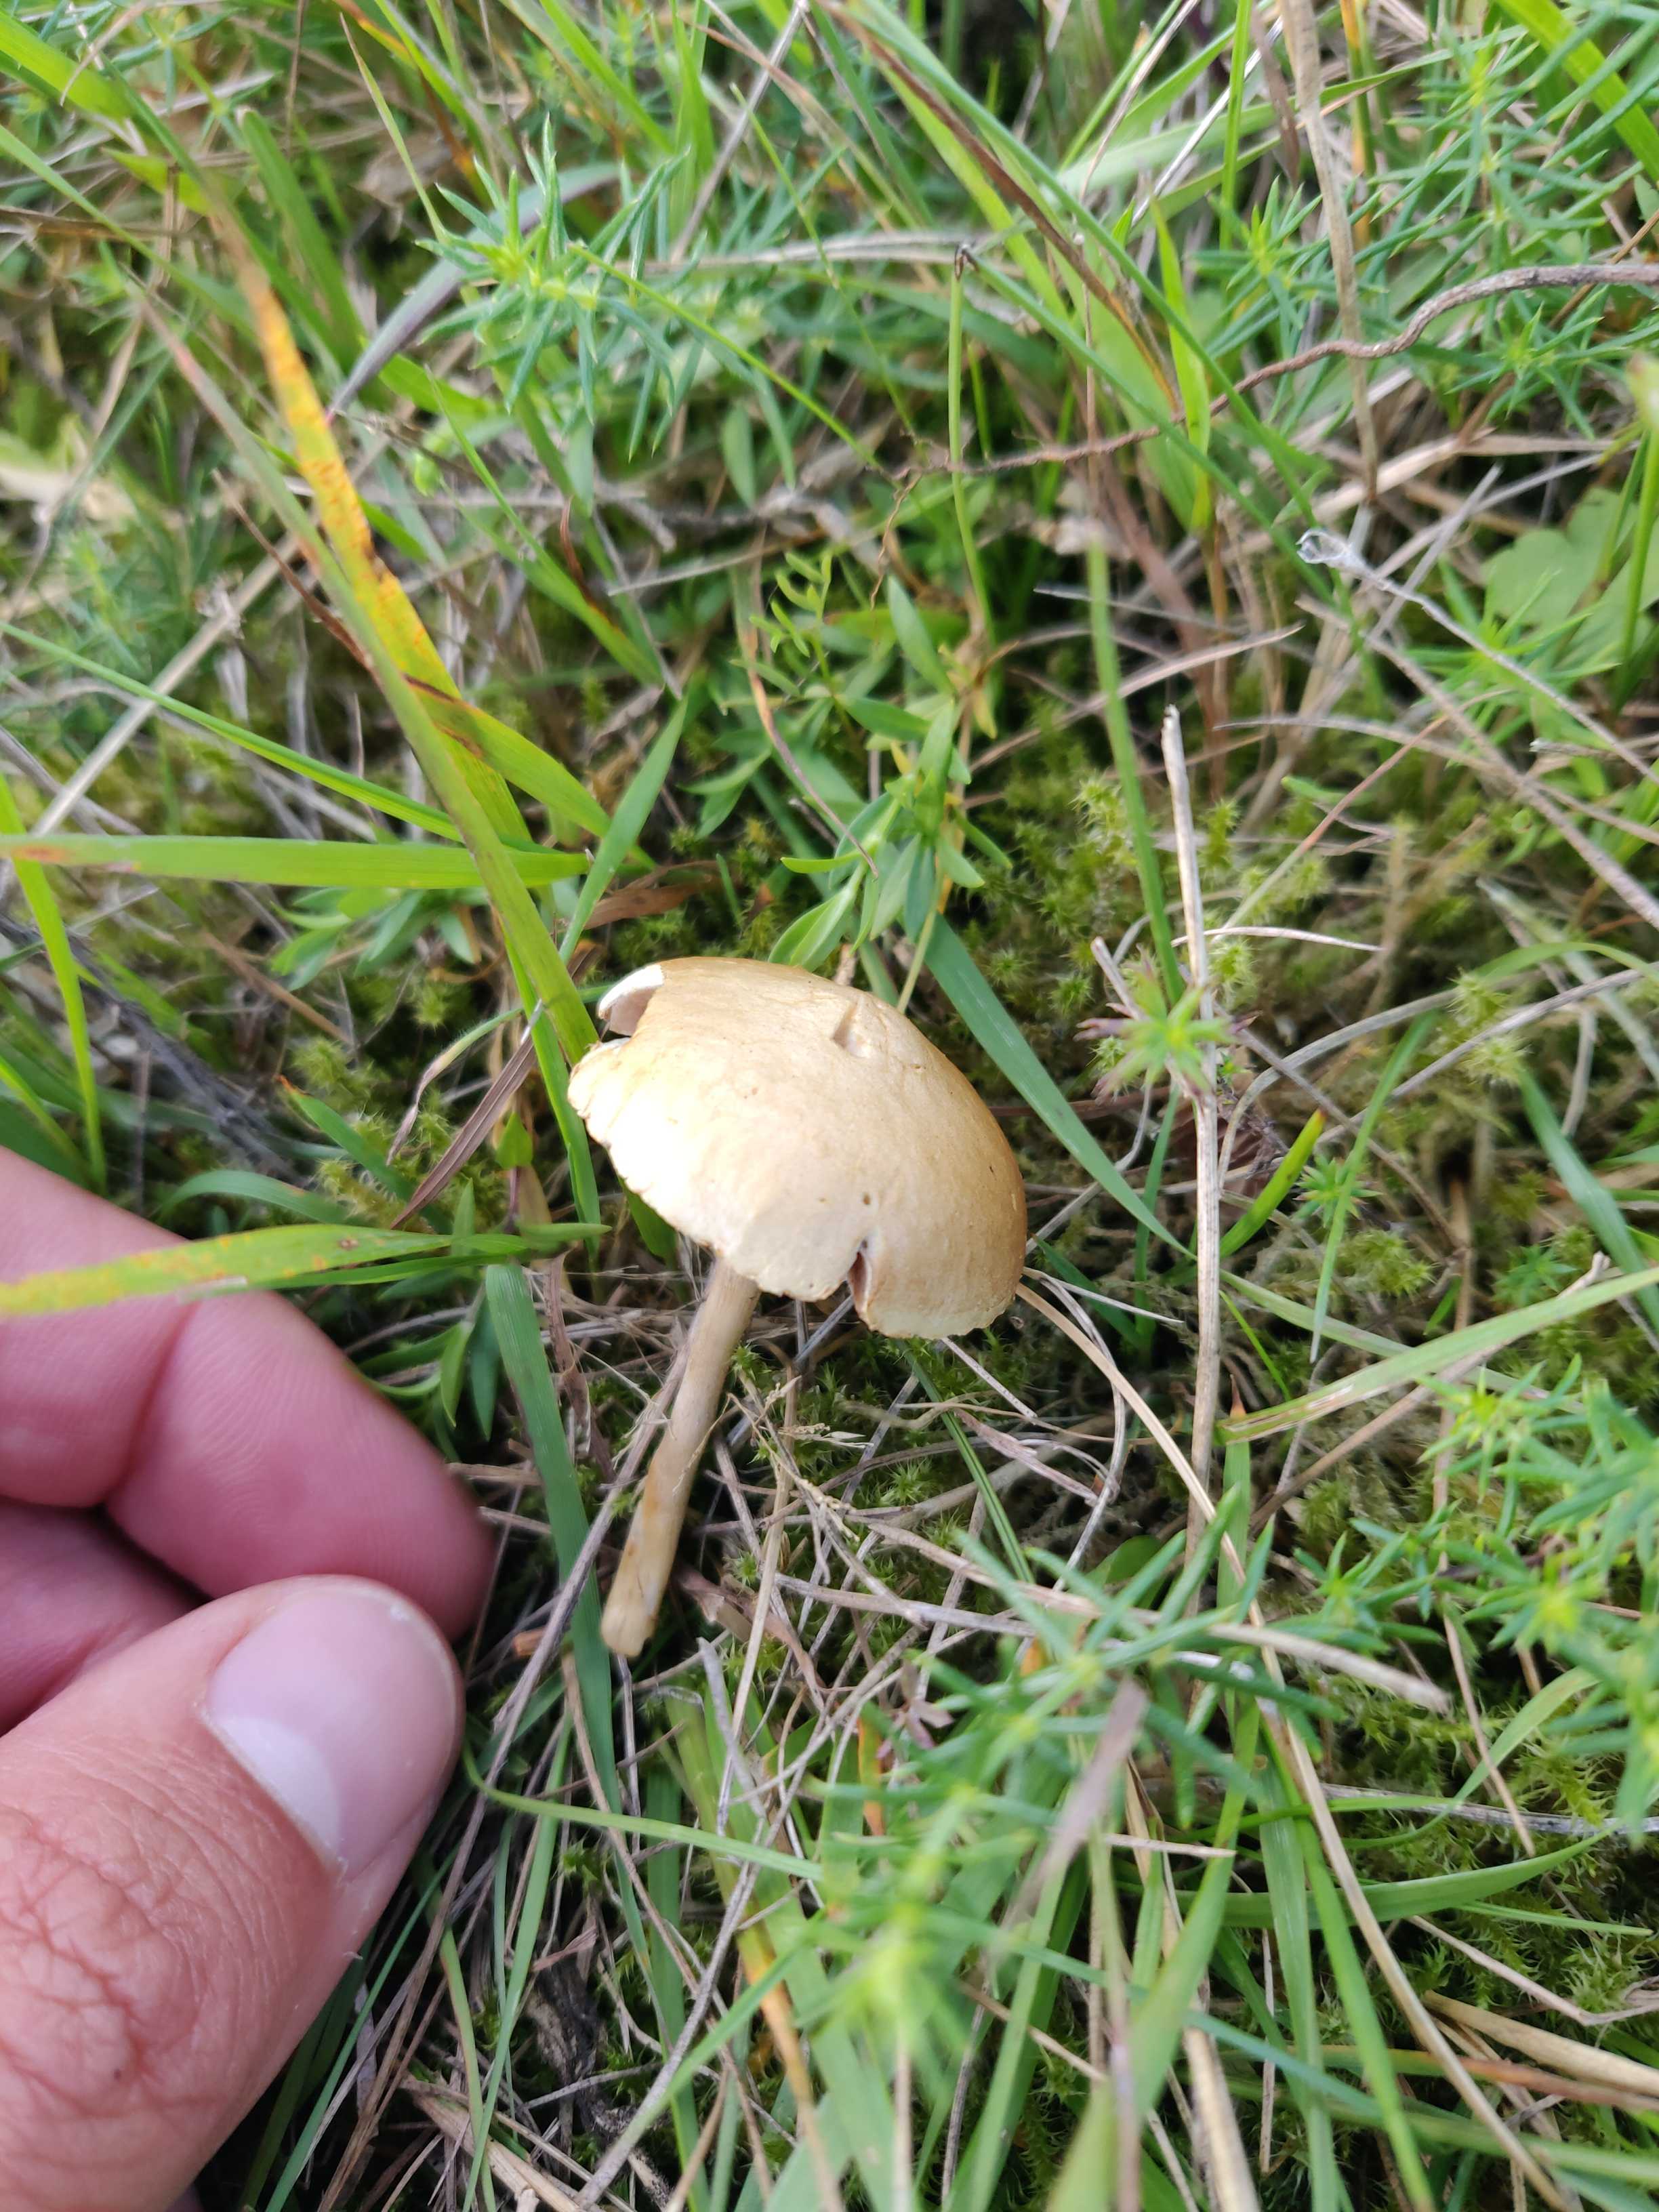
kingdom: Fungi
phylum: Basidiomycota
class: Agaricomycetes
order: Agaricales
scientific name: Agaricales
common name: champignonordenen
